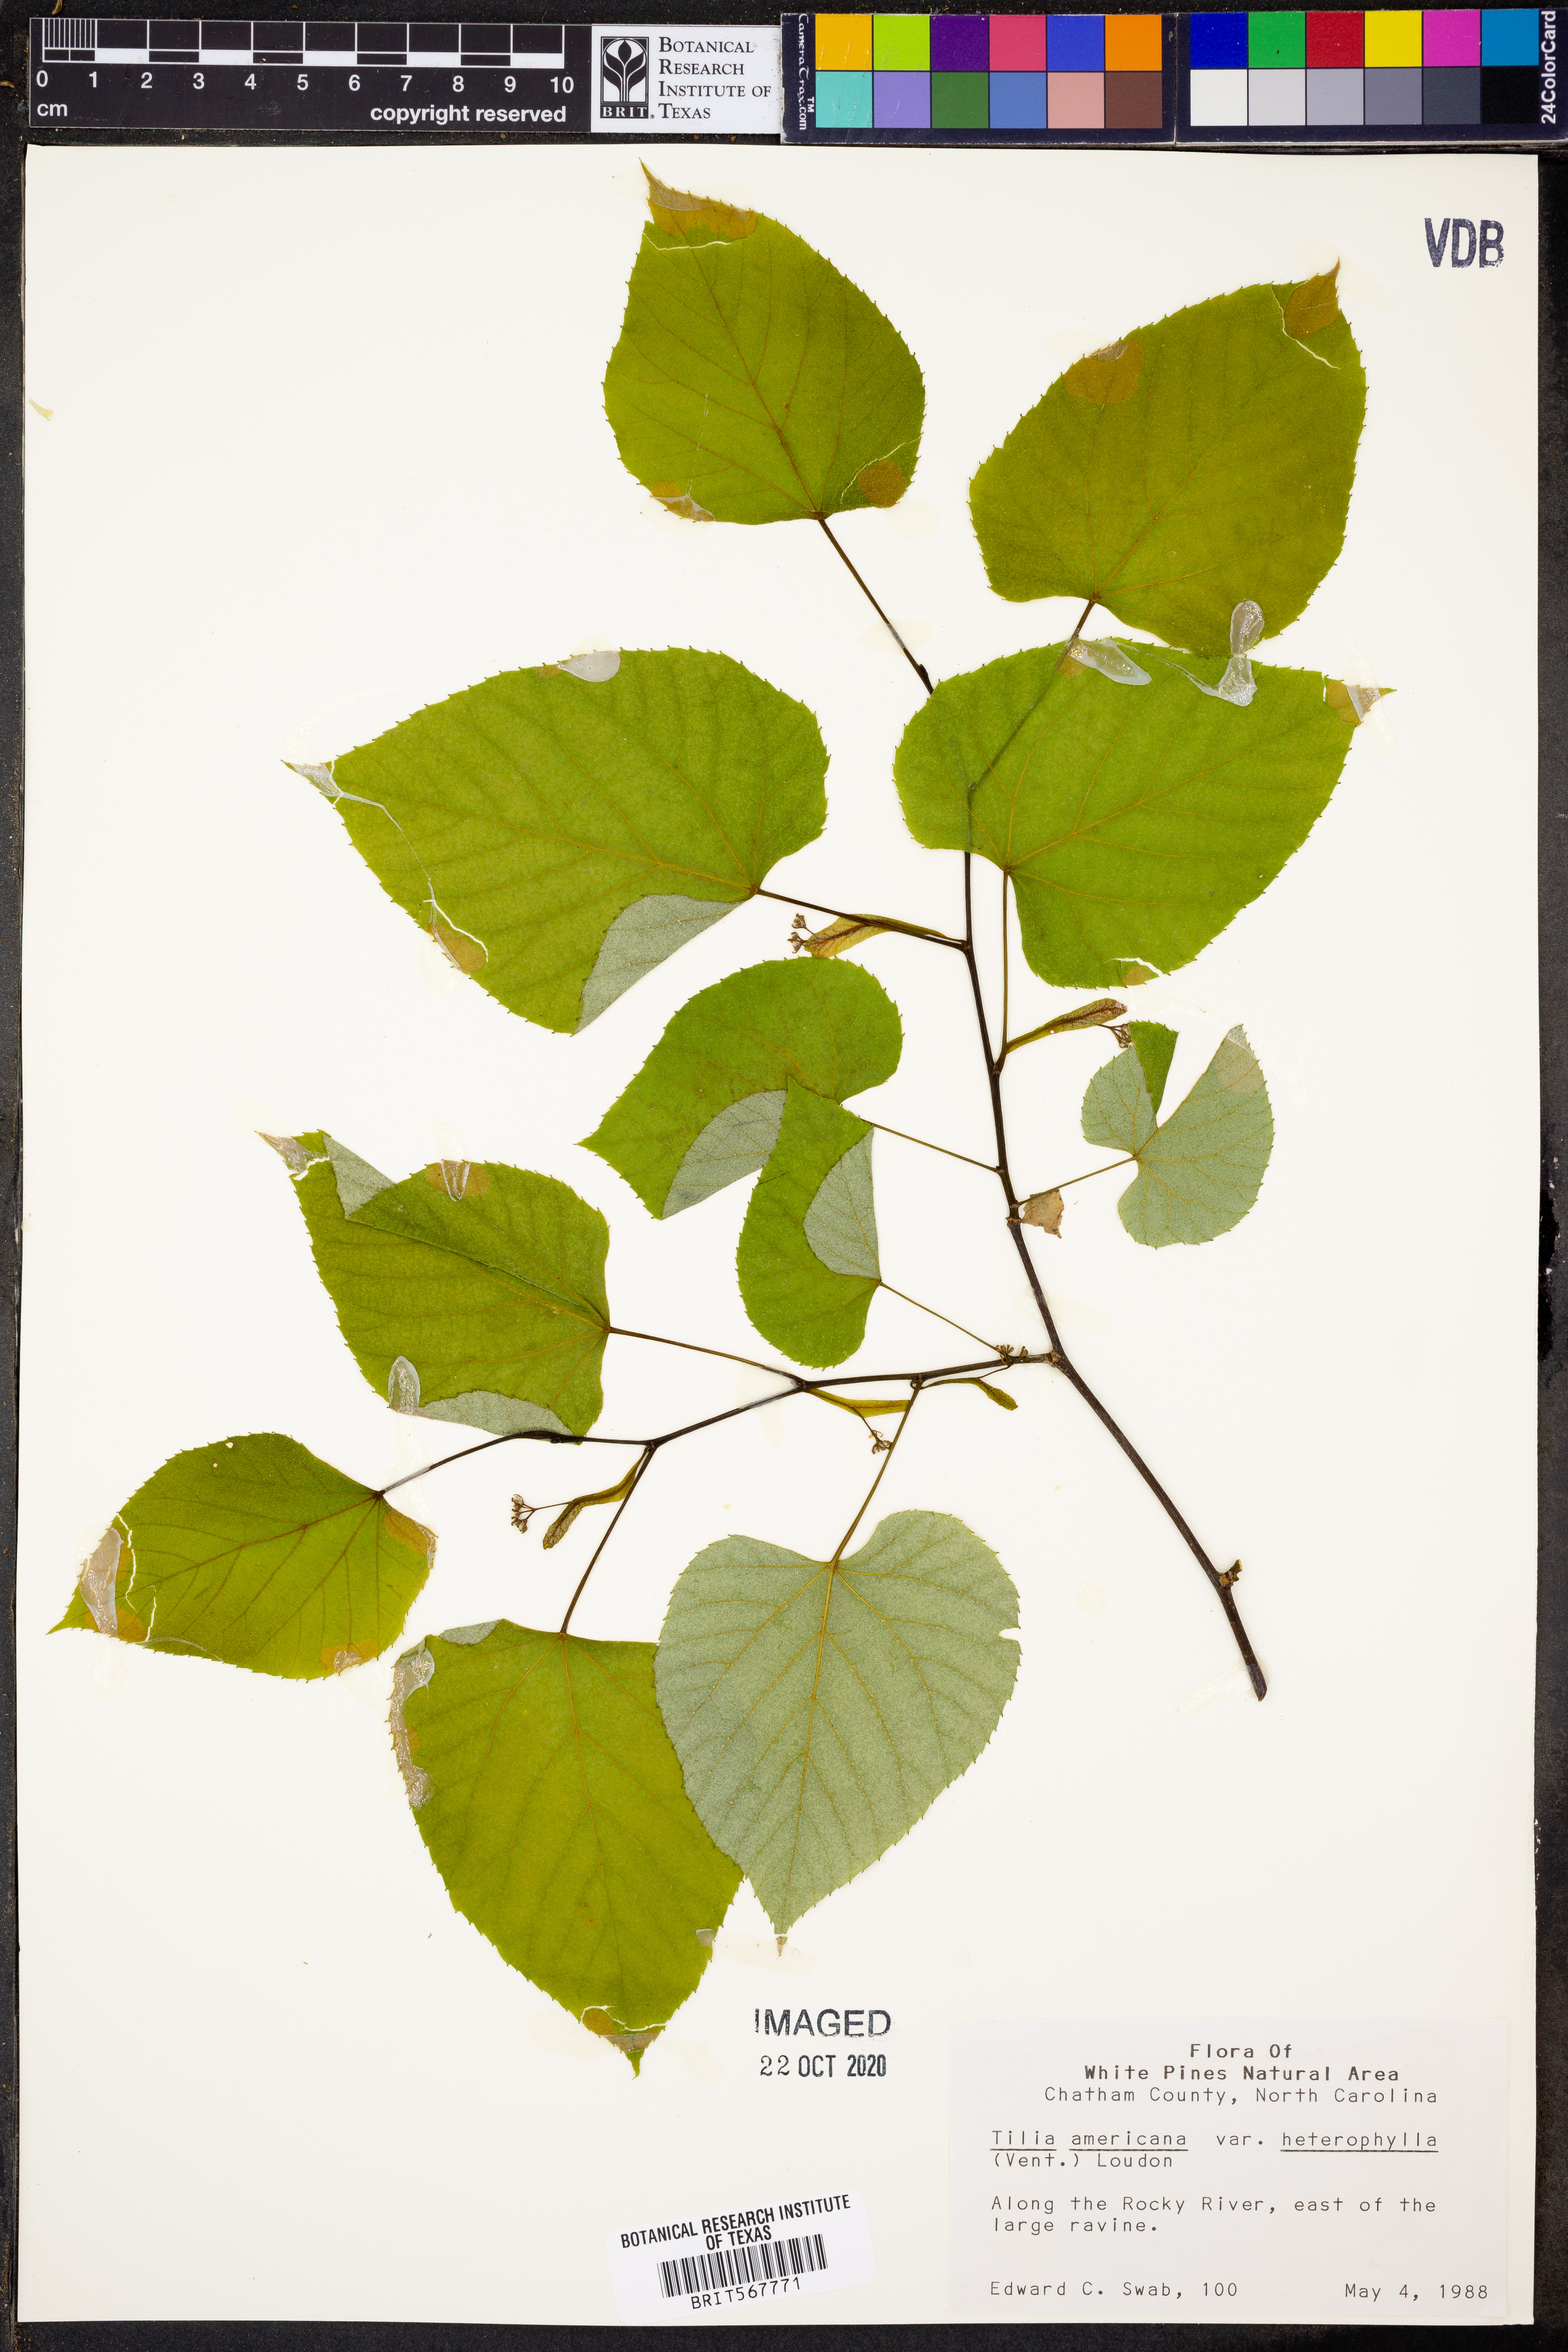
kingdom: Plantae
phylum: Tracheophyta
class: Magnoliopsida
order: Malvales
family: Malvaceae
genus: Tilia
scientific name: Tilia americana
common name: Basswood
